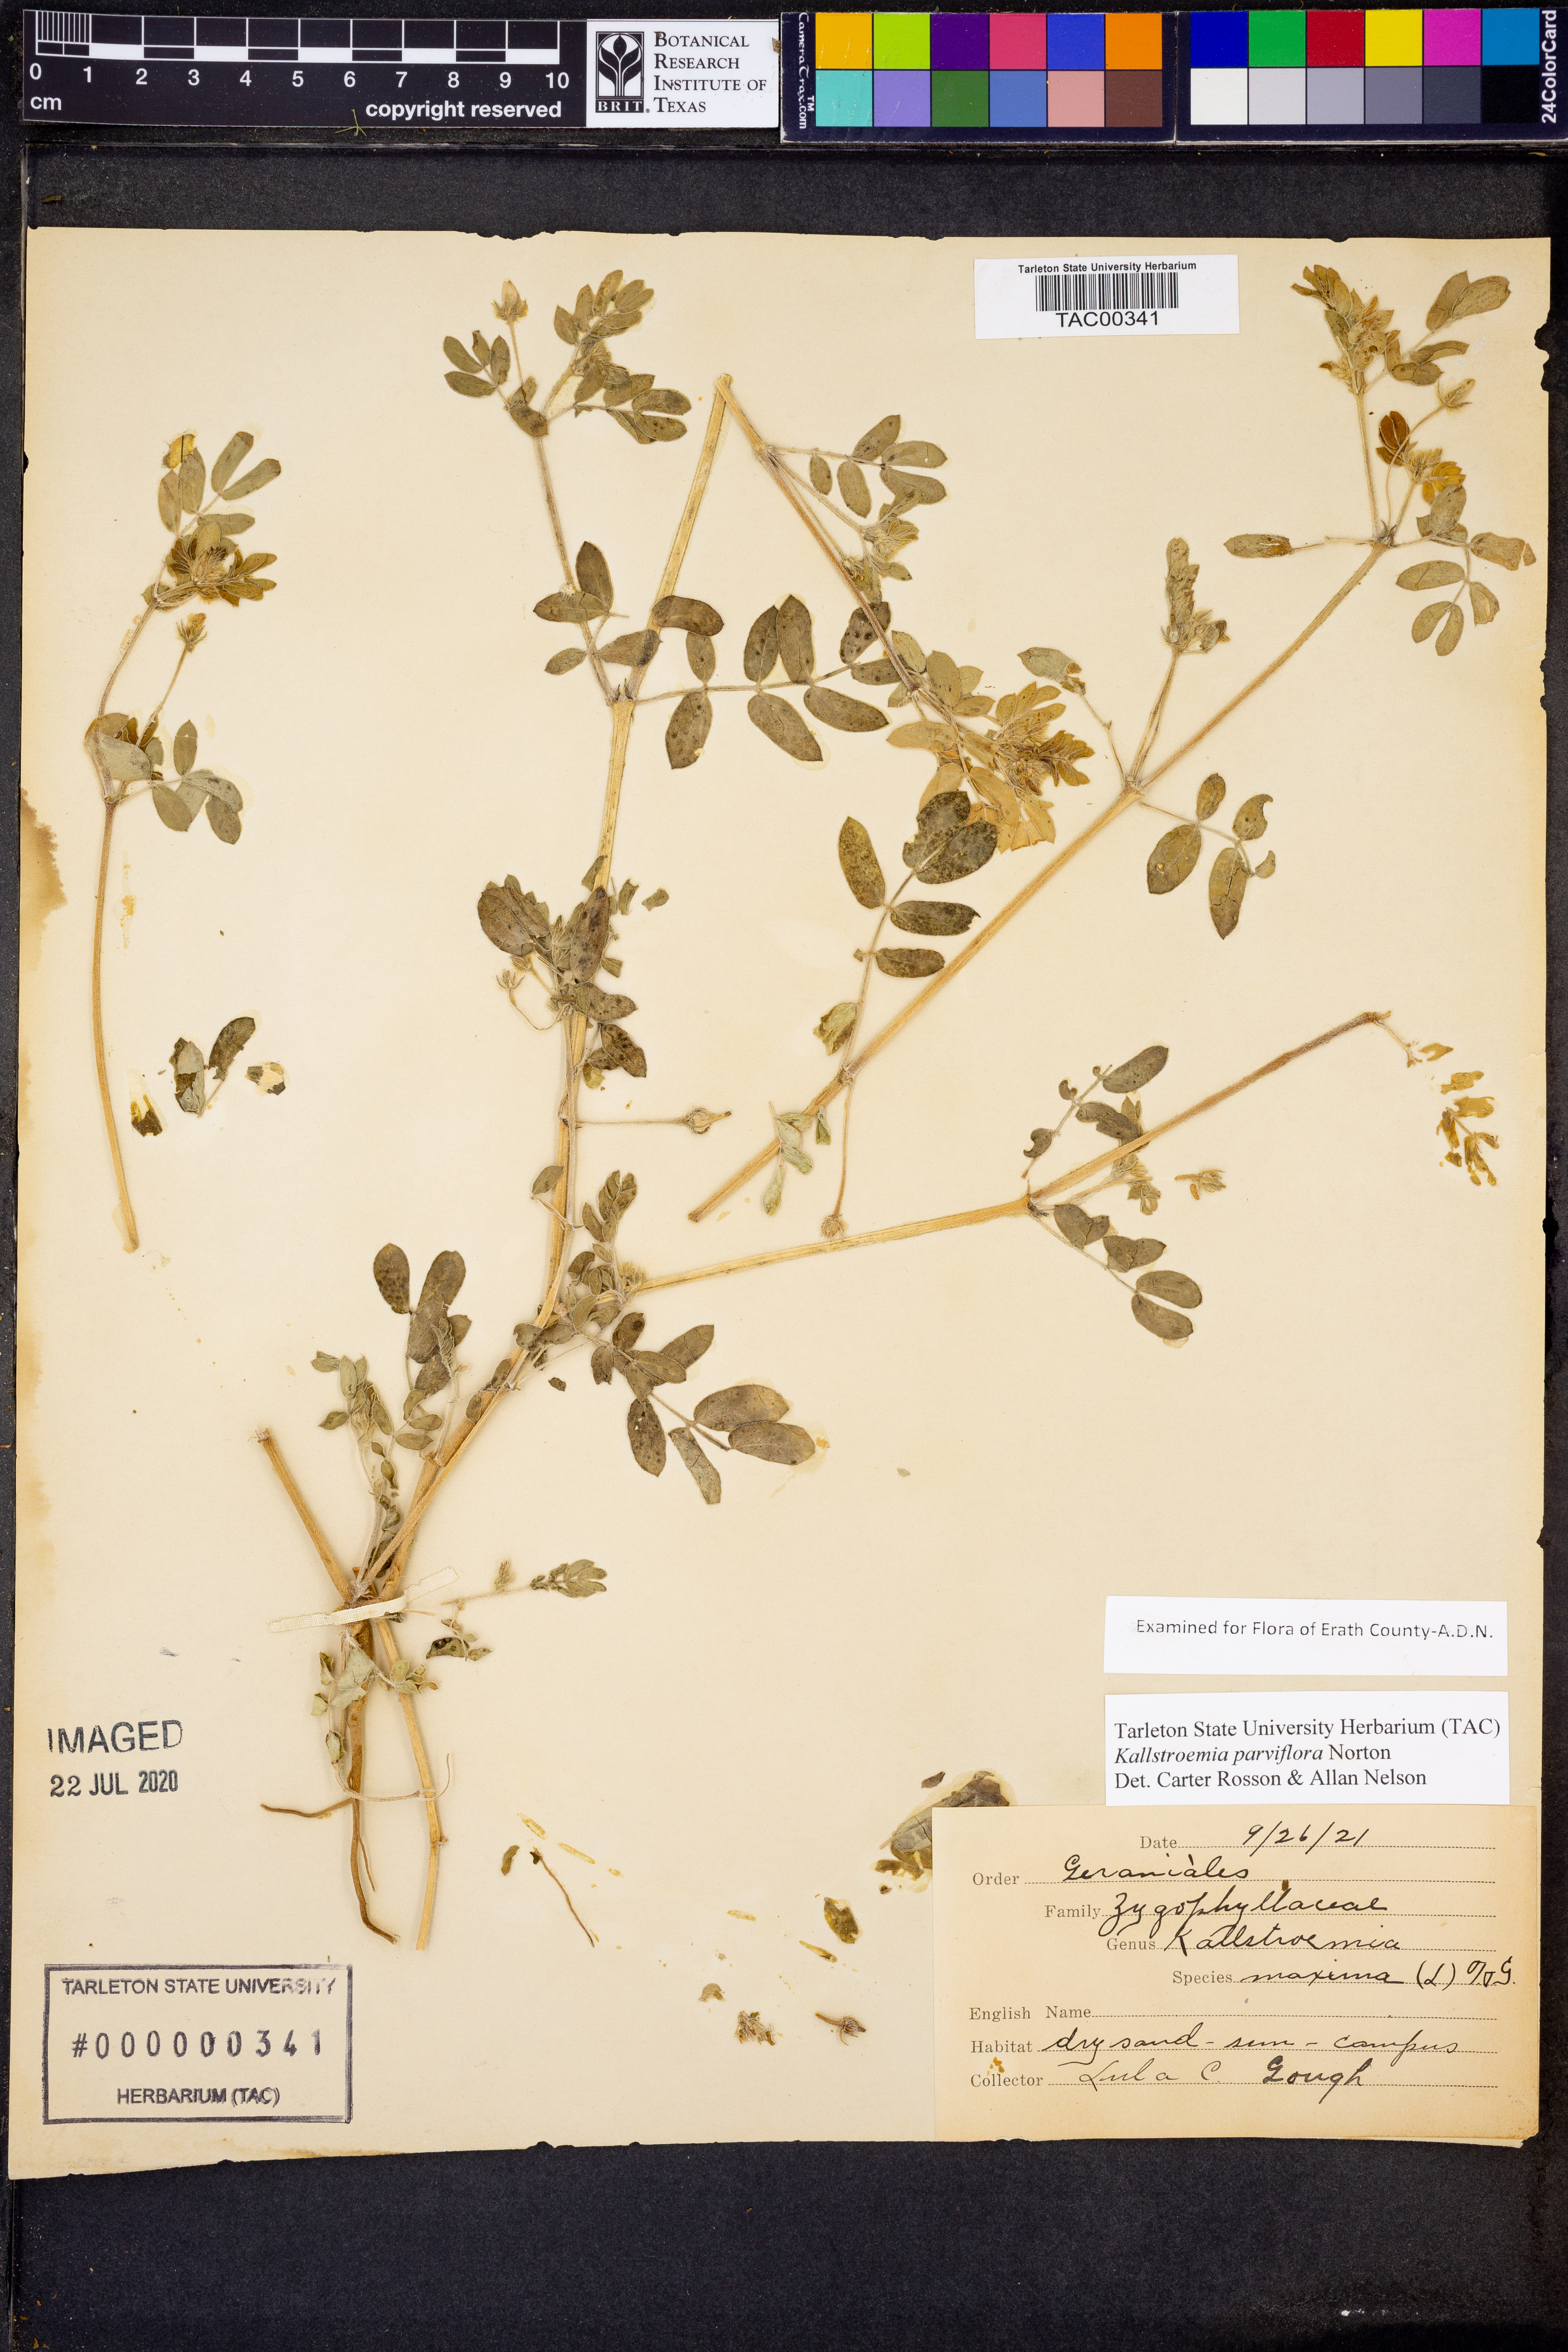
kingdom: Plantae
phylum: Tracheophyta
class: Magnoliopsida
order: Zygophyllales
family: Zygophyllaceae
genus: Kallstroemia
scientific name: Kallstroemia parviflora
